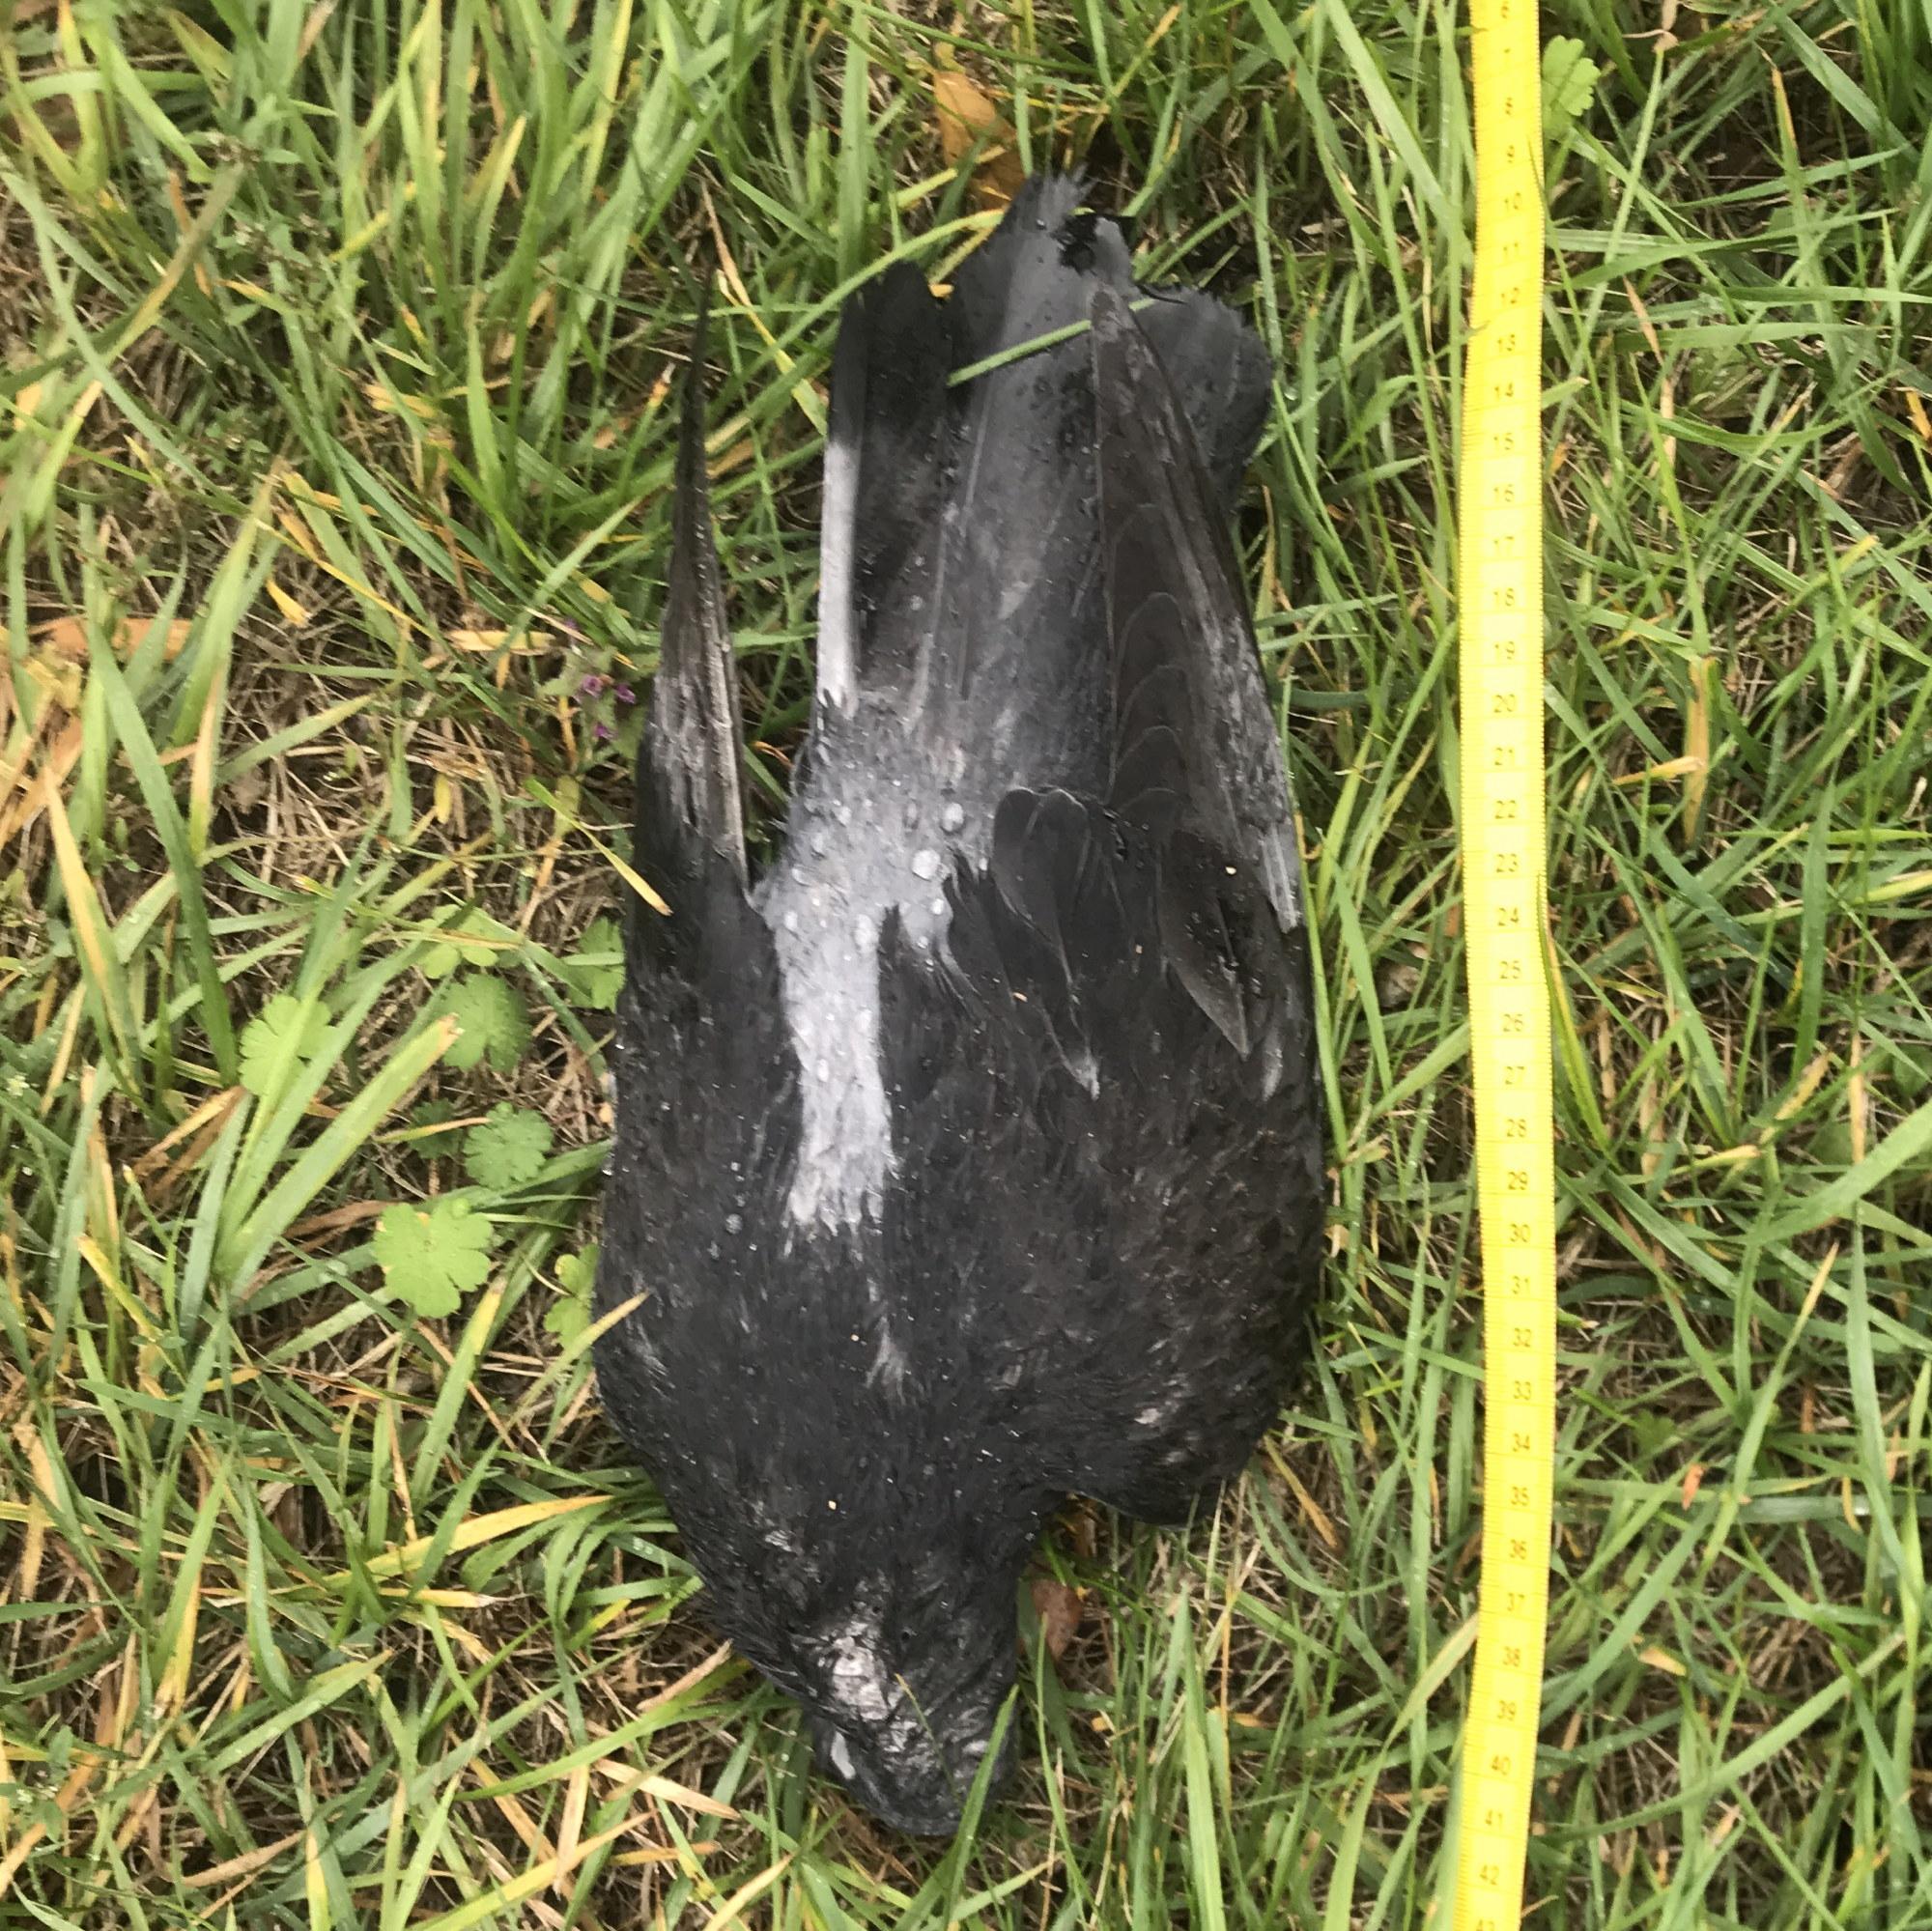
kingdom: Animalia
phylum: Chordata
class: Aves
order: Columbiformes
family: Columbidae
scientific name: Columbidae
